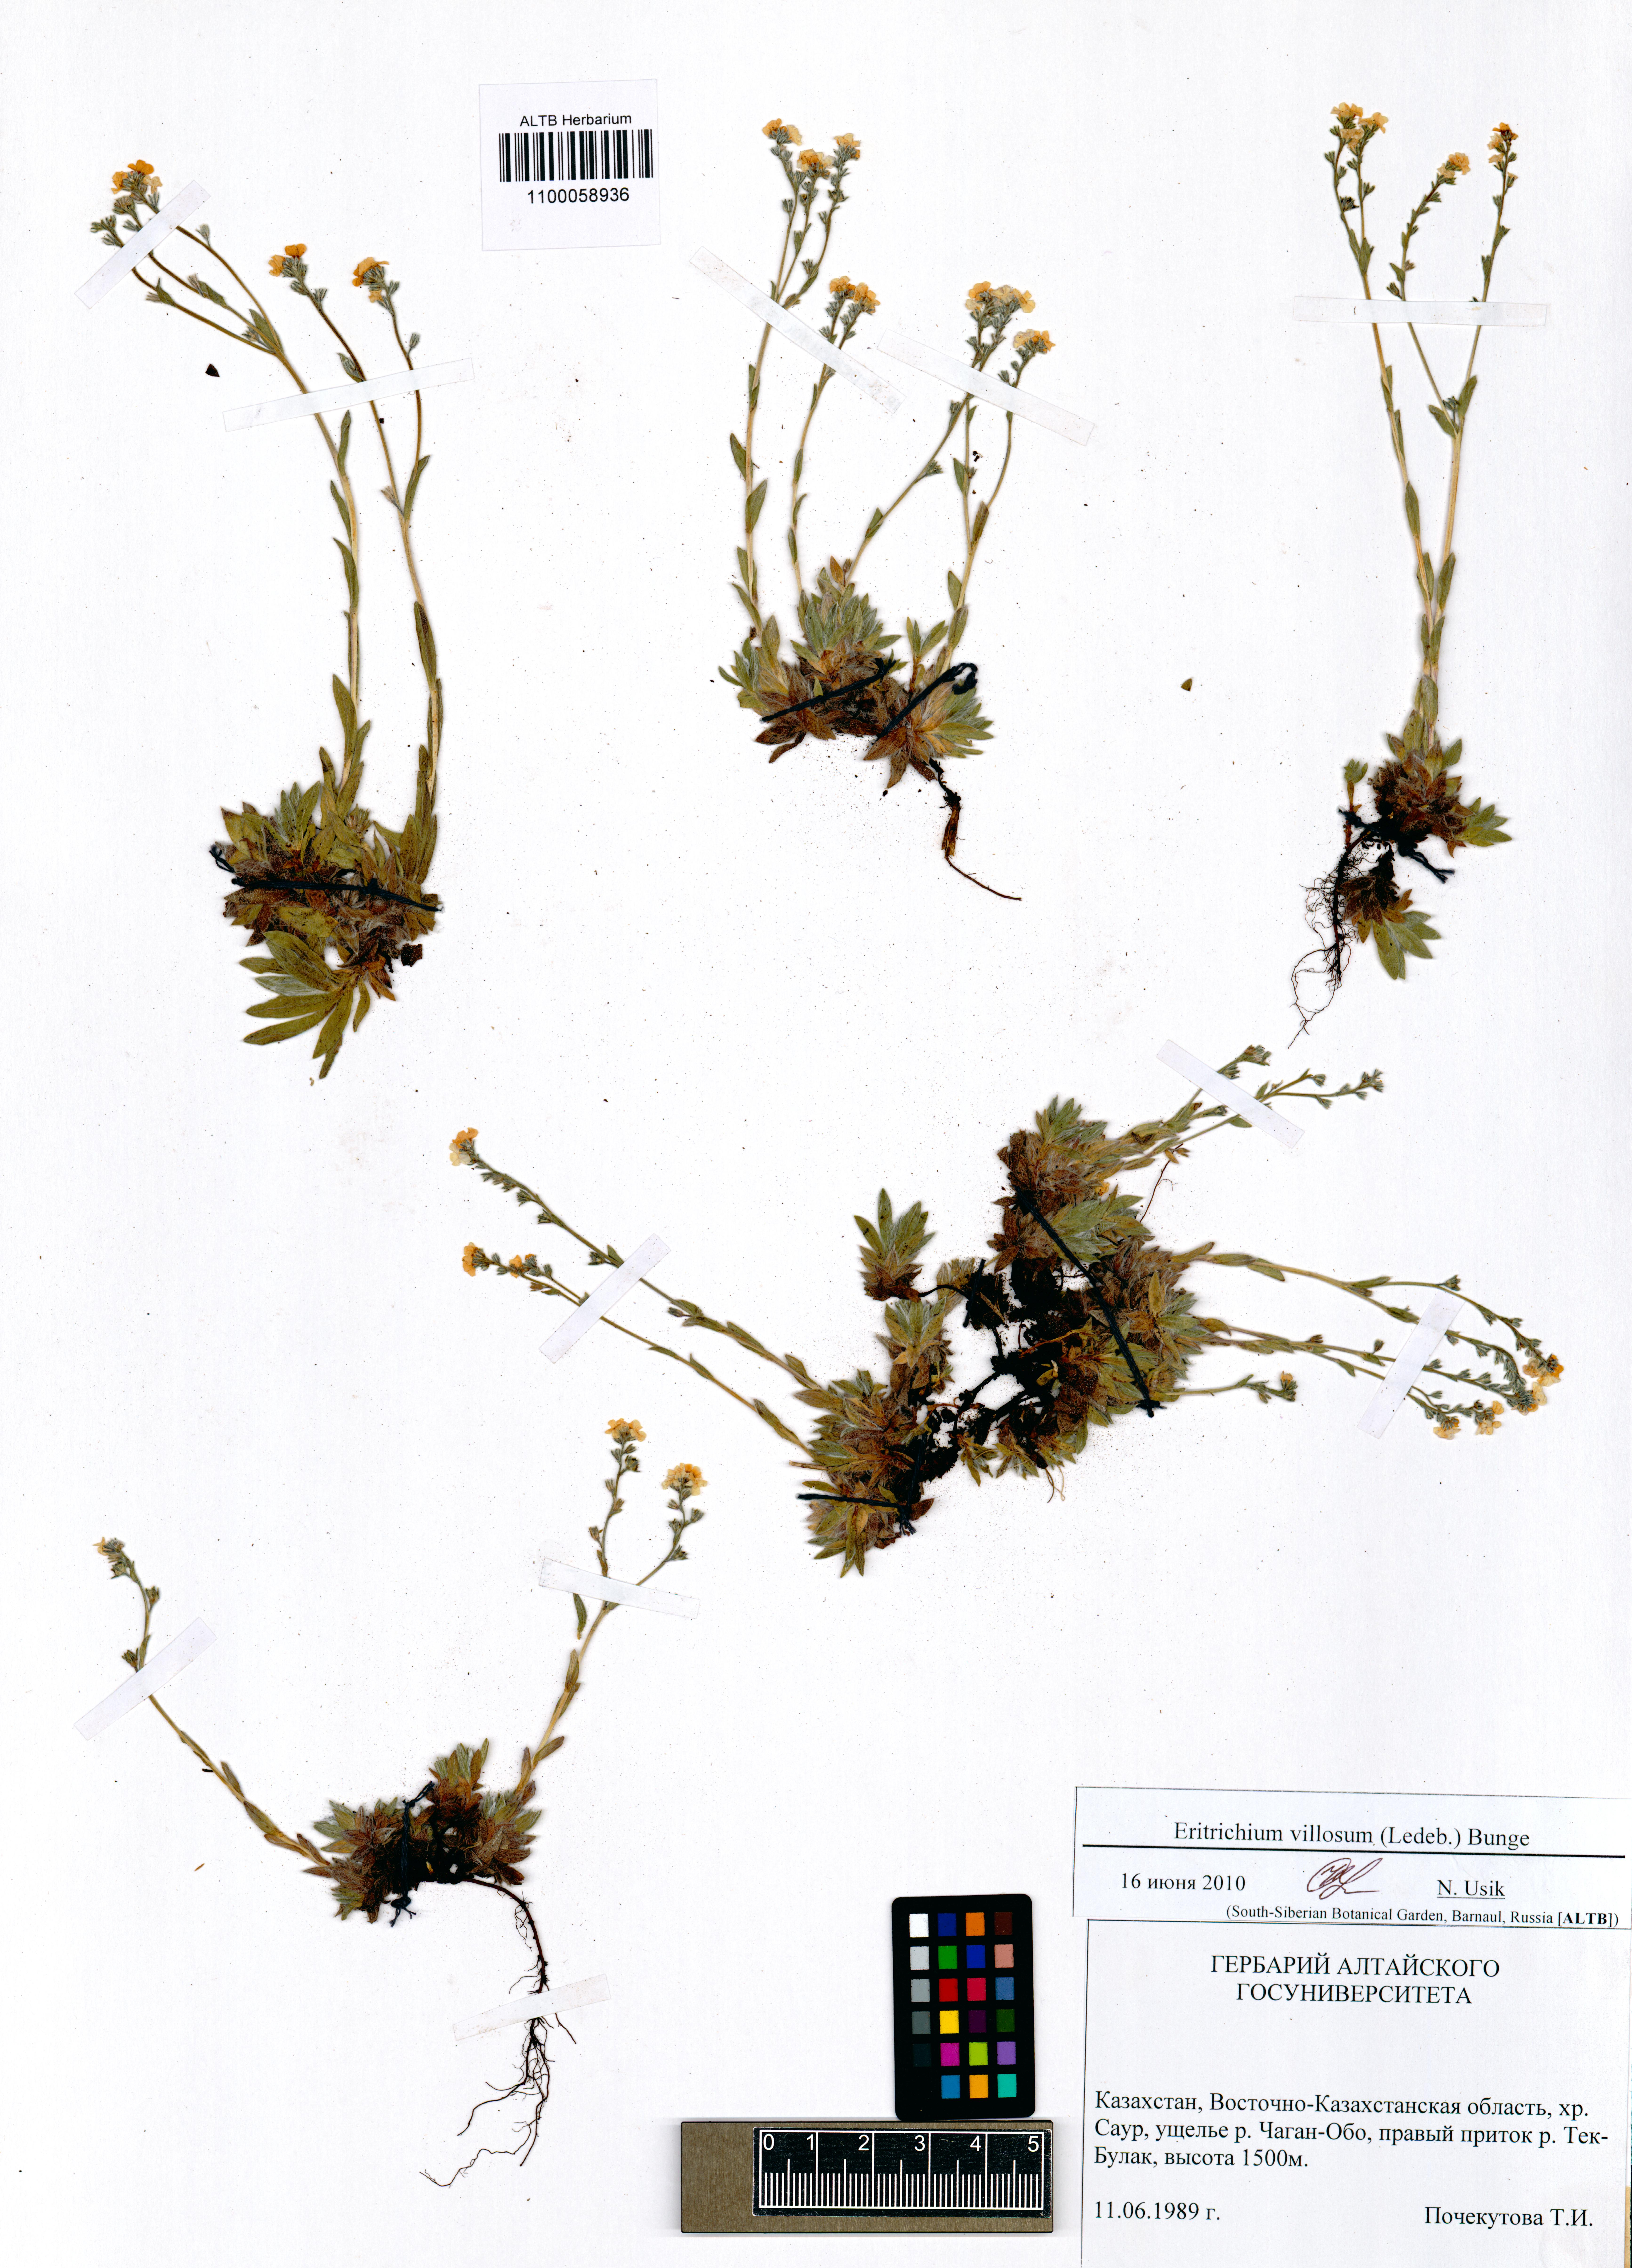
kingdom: Plantae
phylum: Tracheophyta
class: Magnoliopsida
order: Boraginales
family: Boraginaceae
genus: Eritrichium
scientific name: Eritrichium villosum
